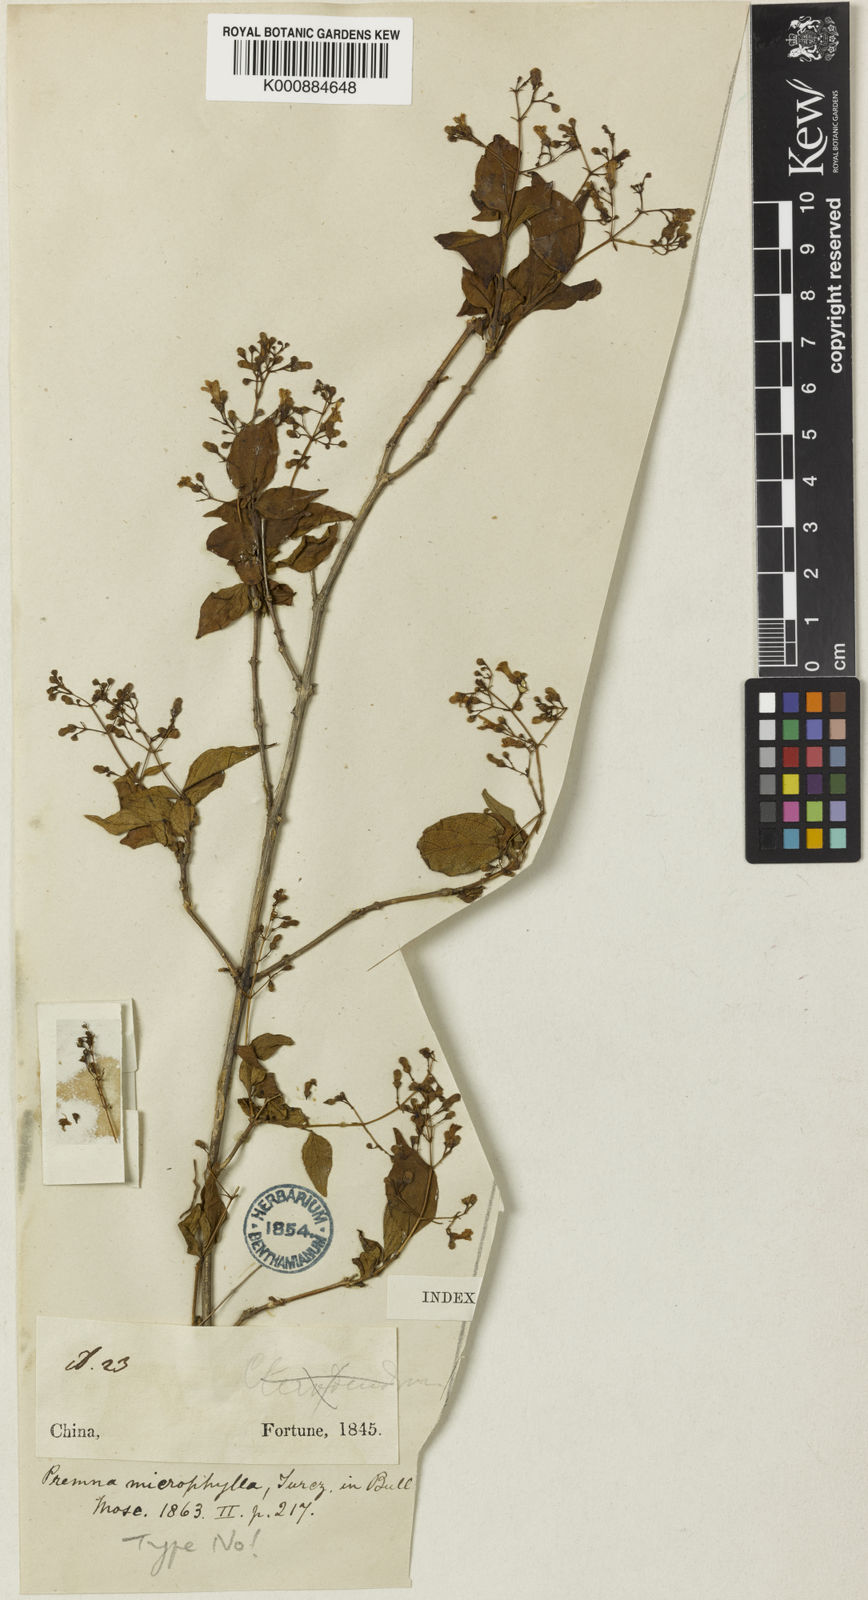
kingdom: Plantae
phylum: Tracheophyta
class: Magnoliopsida
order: Lamiales
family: Lamiaceae
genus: Premna
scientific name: Premna microphylla
